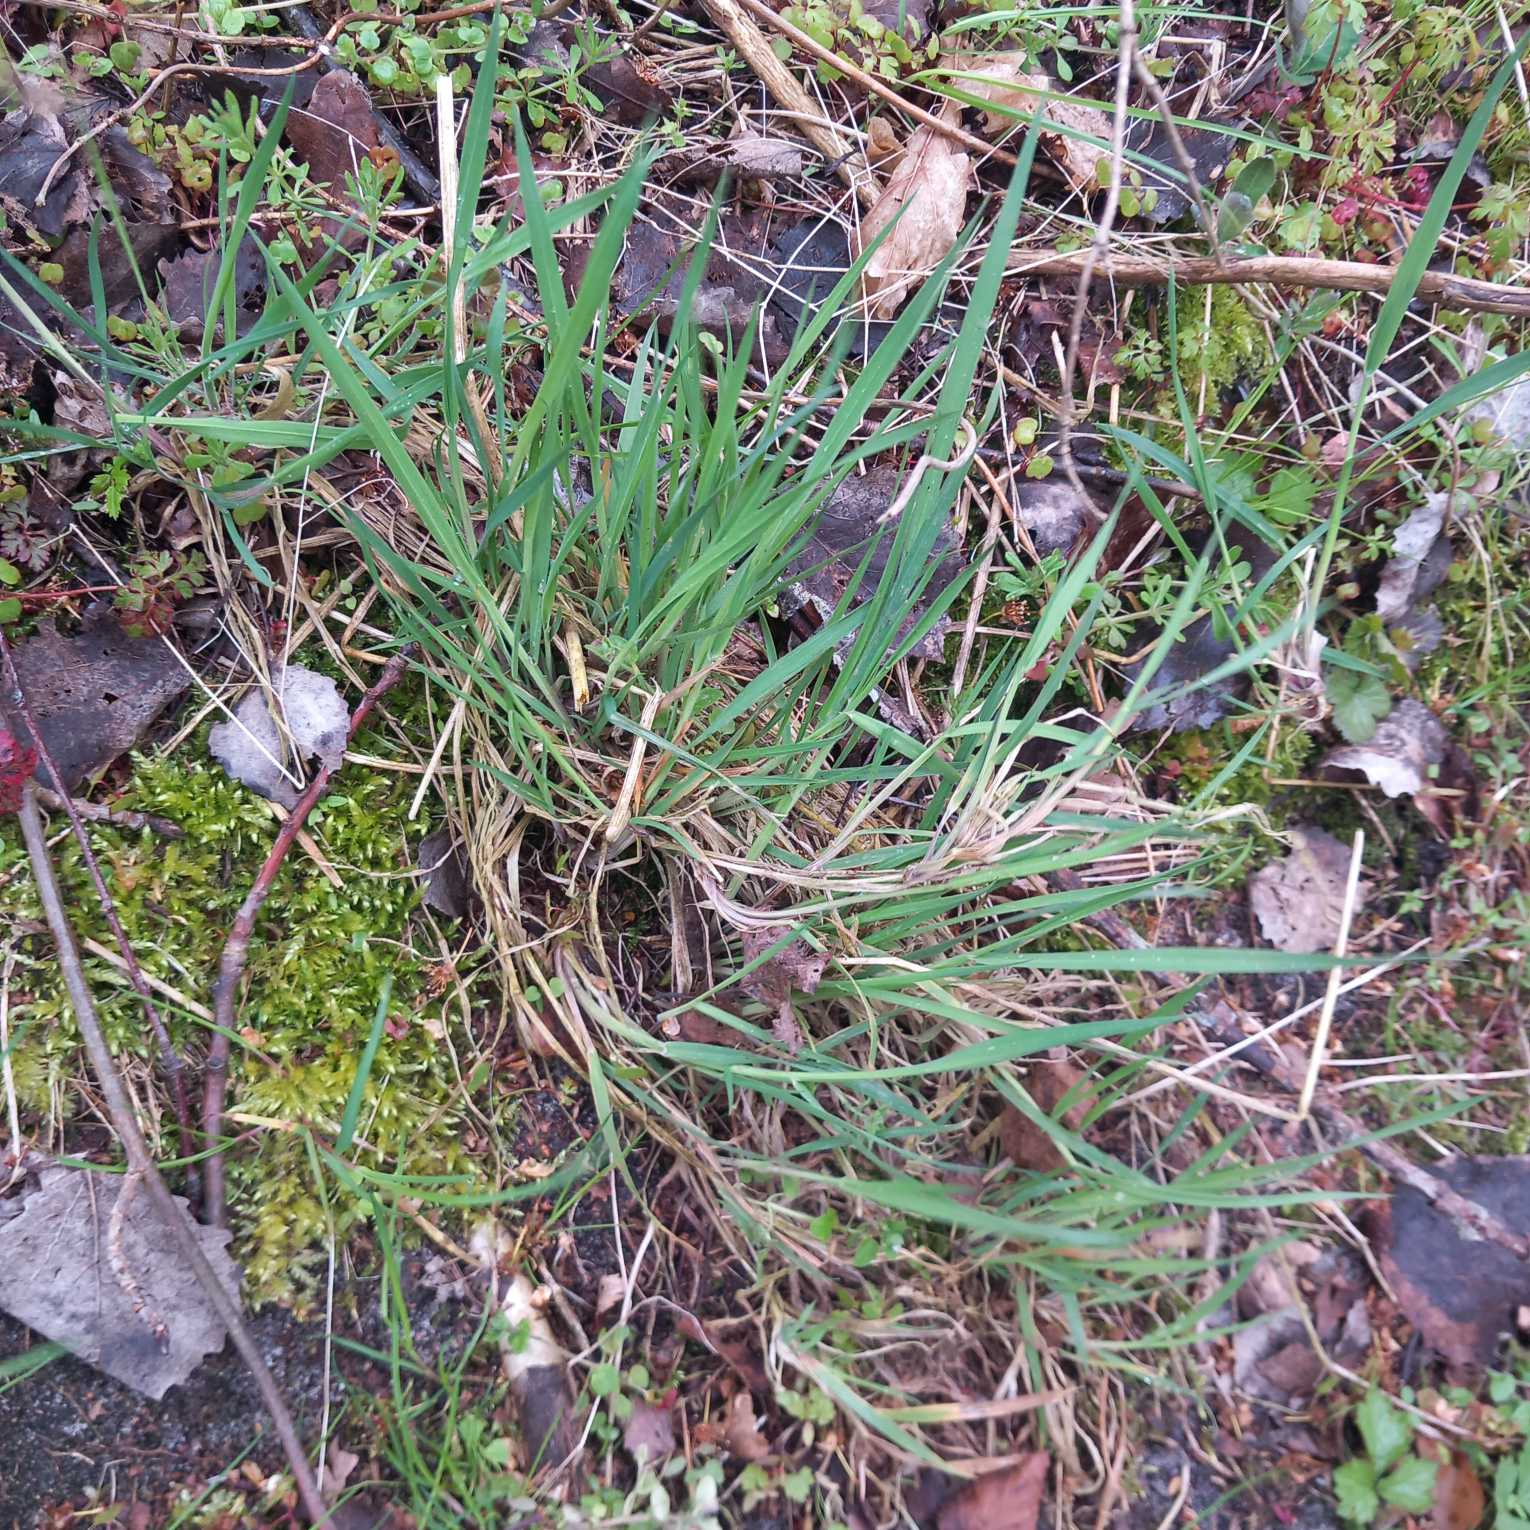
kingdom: Plantae
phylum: Tracheophyta
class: Liliopsida
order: Poales
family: Poaceae
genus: Holcus
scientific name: Holcus lanatus
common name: Fløjlsgræs
